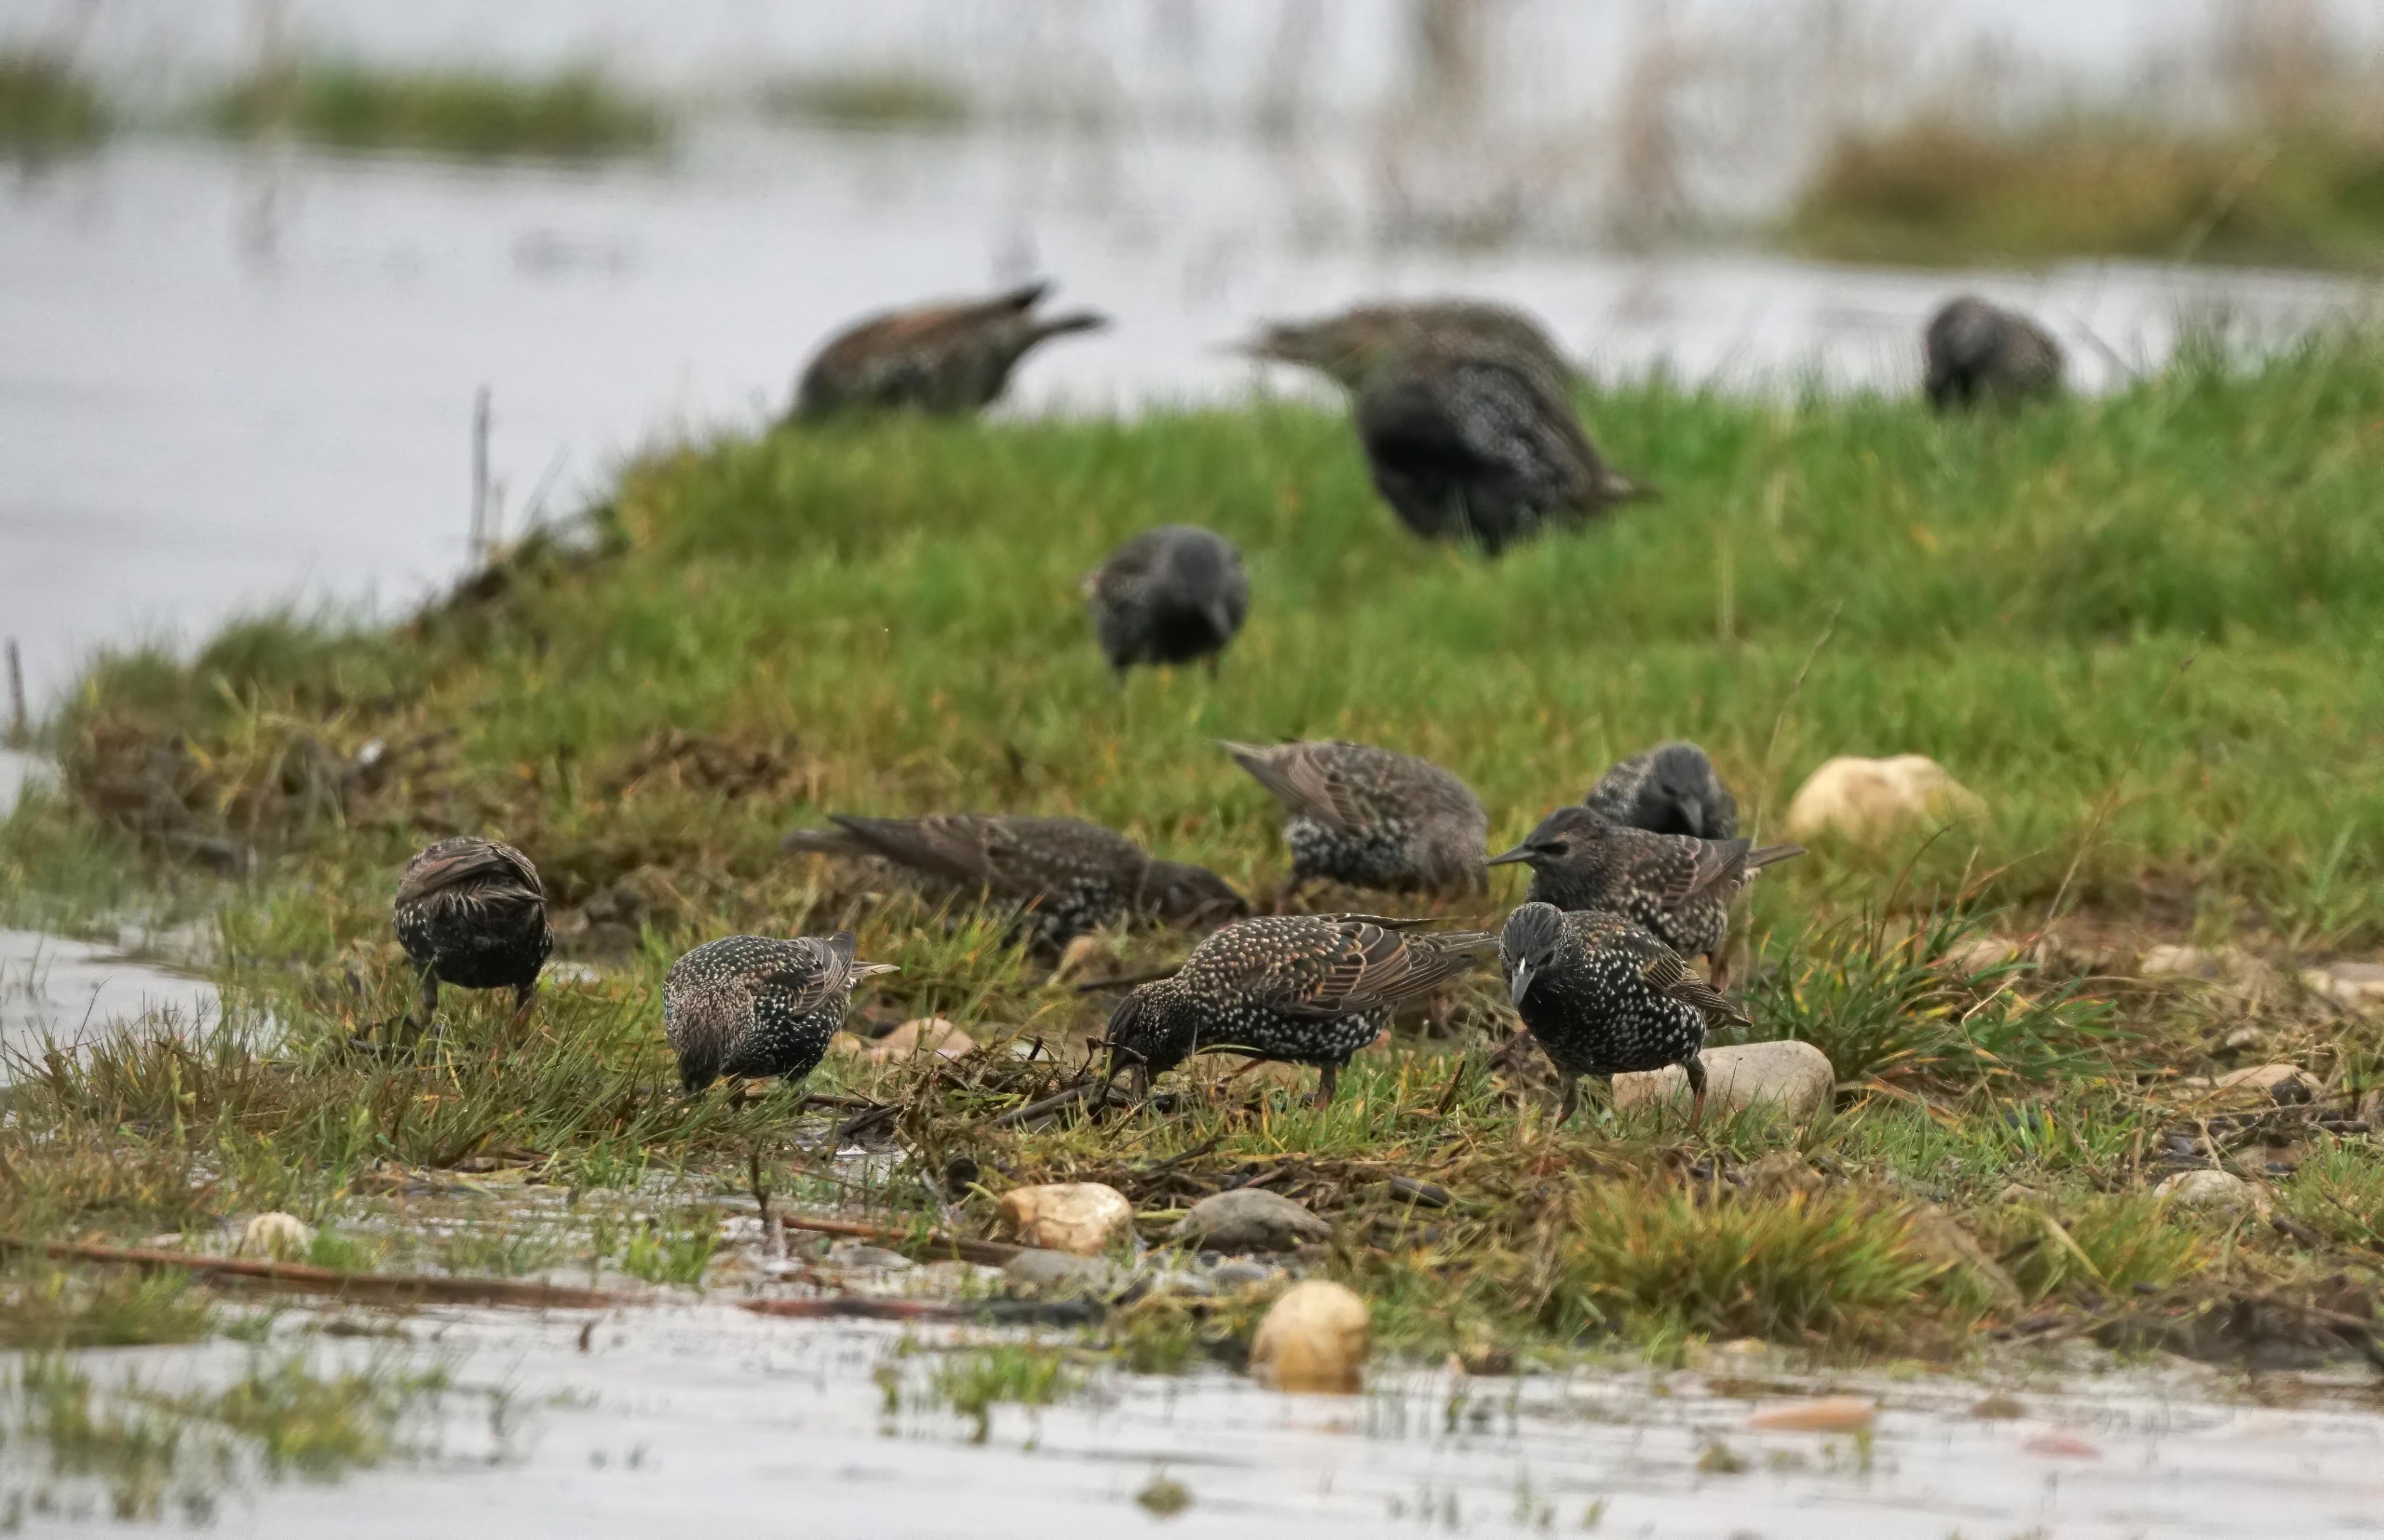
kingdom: Animalia
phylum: Chordata
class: Aves
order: Passeriformes
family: Sturnidae
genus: Sturnus
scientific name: Sturnus vulgaris
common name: Stær
